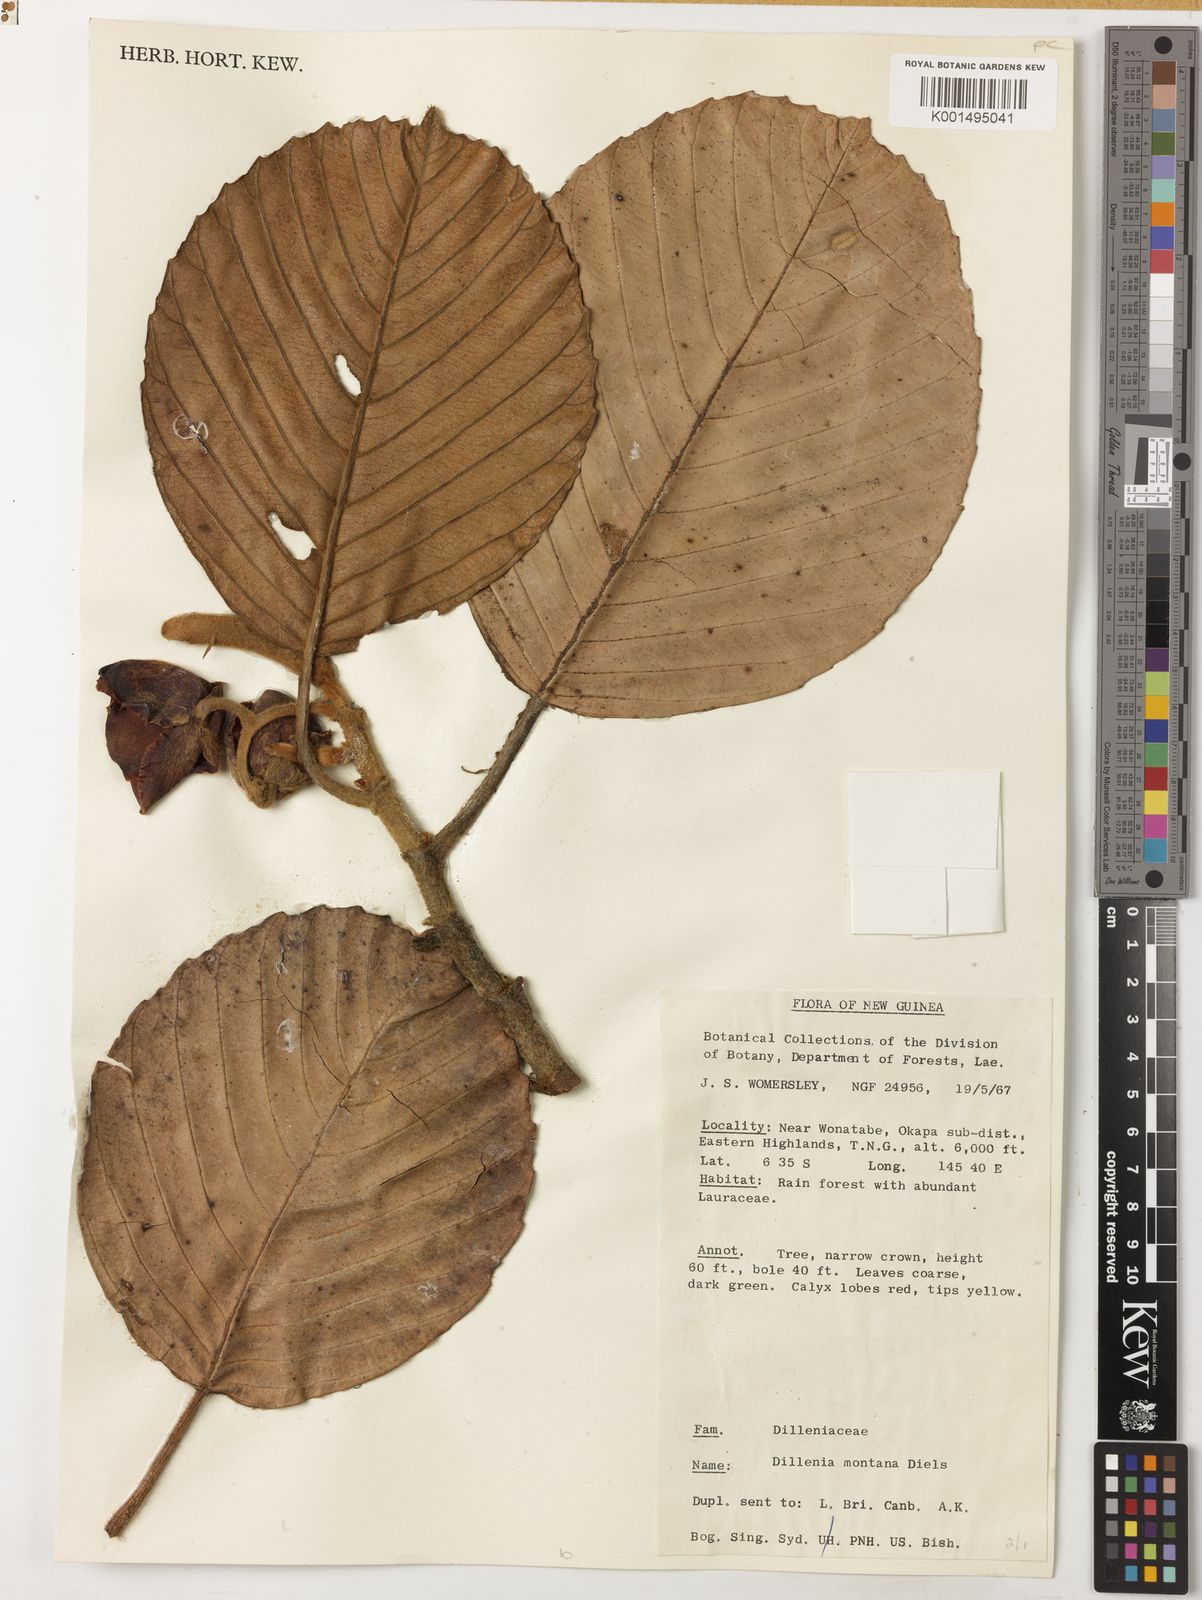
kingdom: Plantae
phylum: Tracheophyta
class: Magnoliopsida
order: Dilleniales
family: Dilleniaceae
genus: Dillenia
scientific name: Dillenia montana
